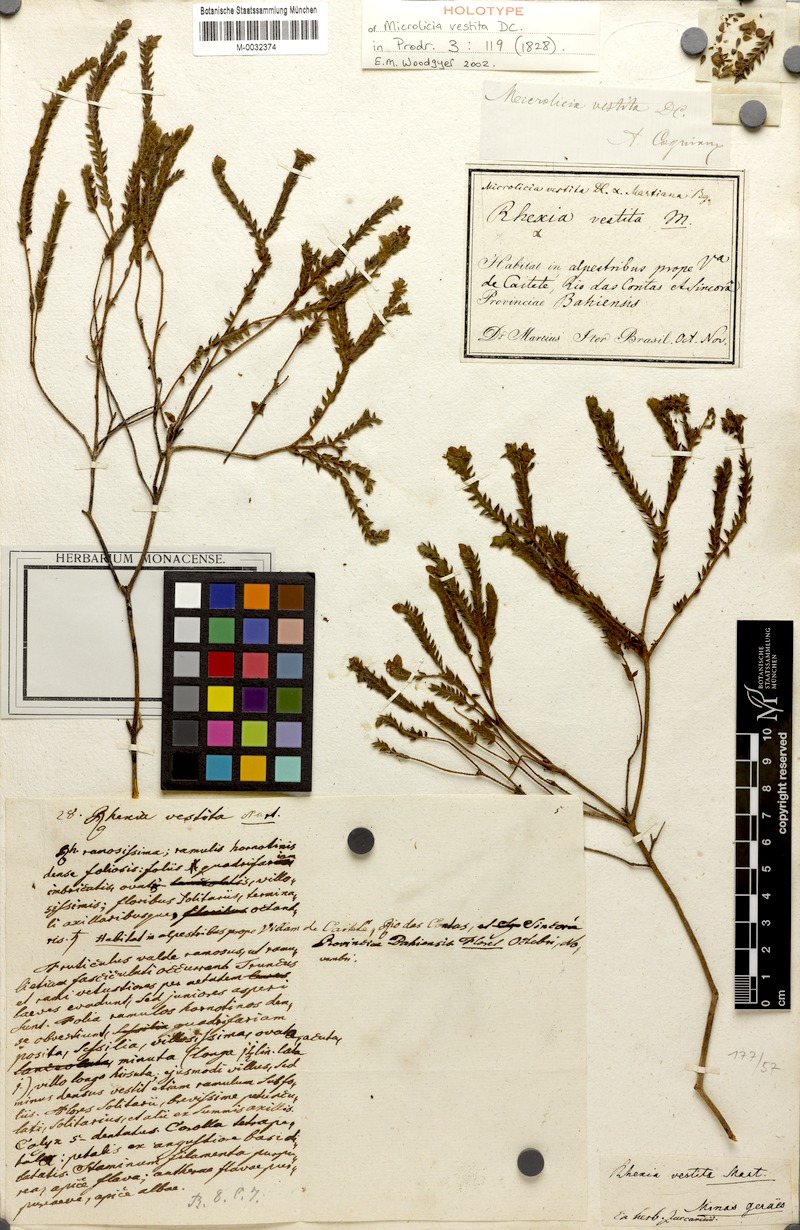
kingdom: Plantae
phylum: Tracheophyta
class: Magnoliopsida
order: Myrtales
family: Melastomataceae
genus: Microlicia
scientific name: Microlicia vestita
